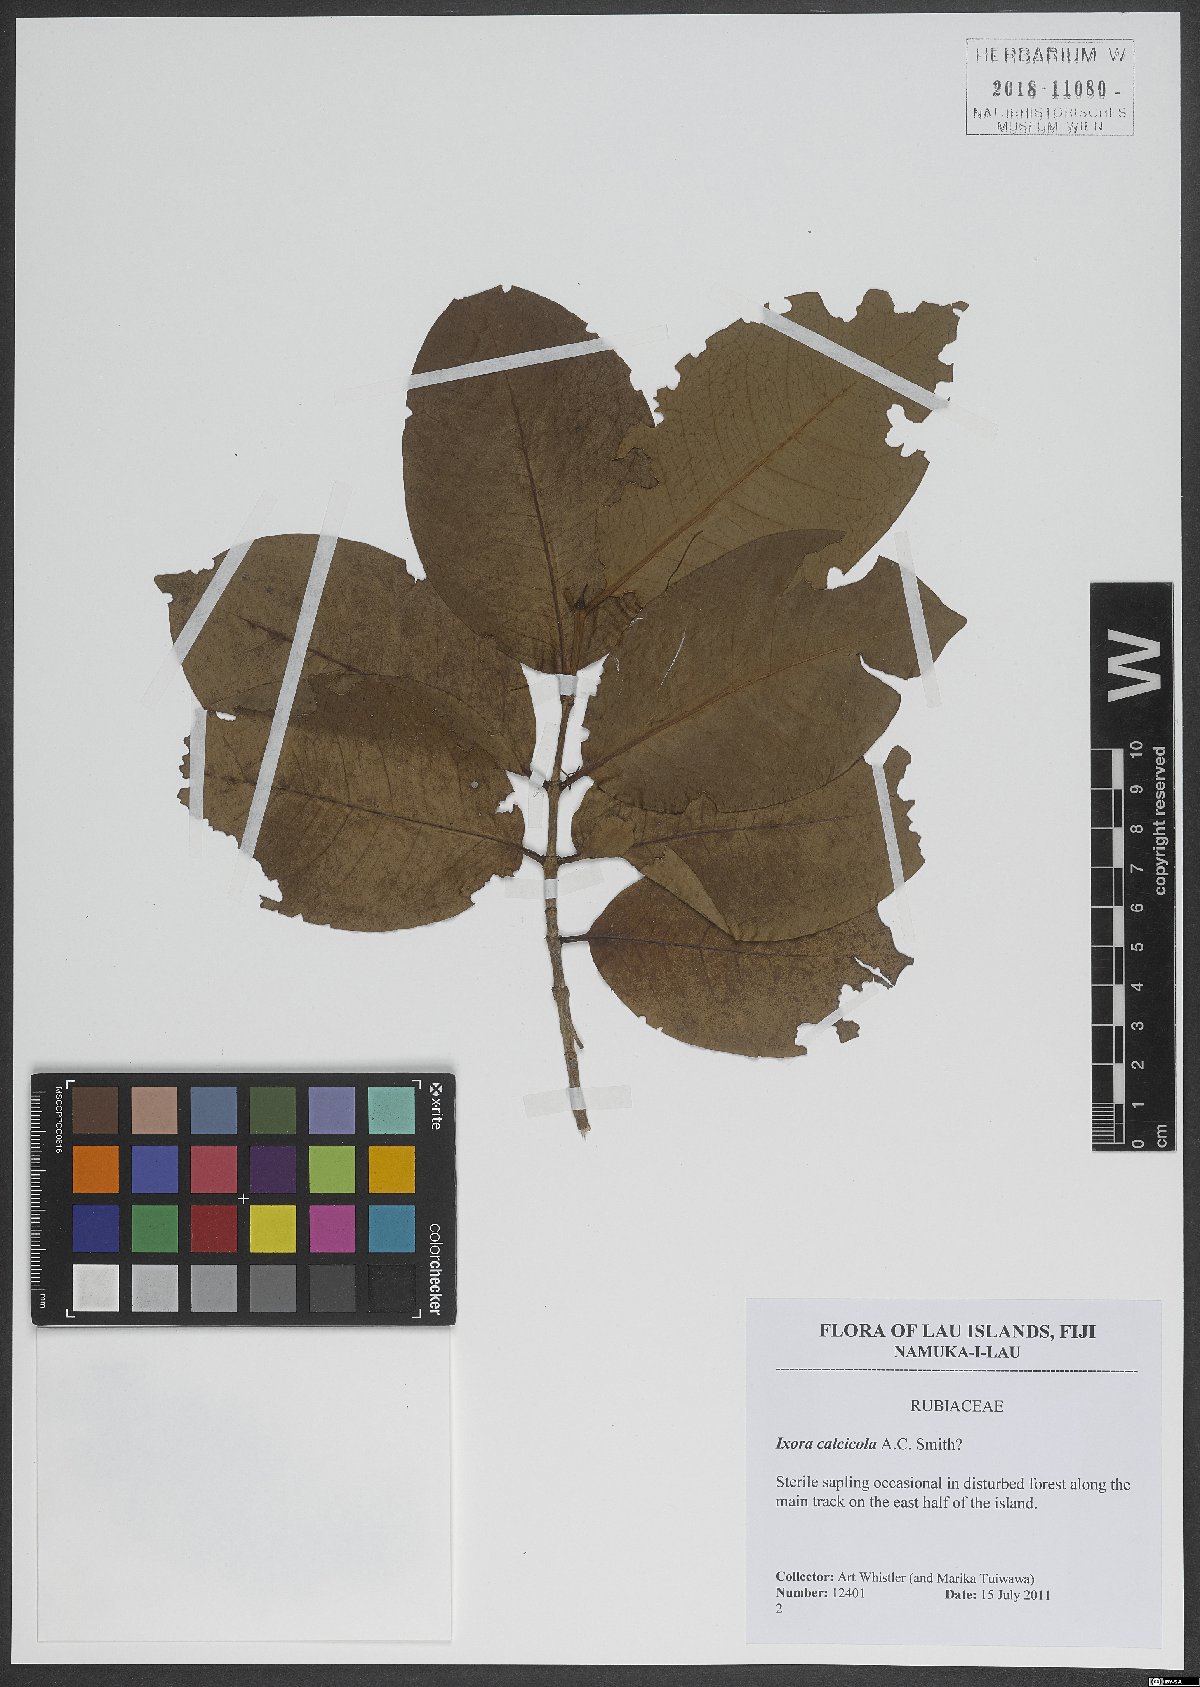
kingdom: Plantae
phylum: Tracheophyta
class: Magnoliopsida
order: Gentianales
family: Rubiaceae
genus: Ixora
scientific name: Ixora calcicola
